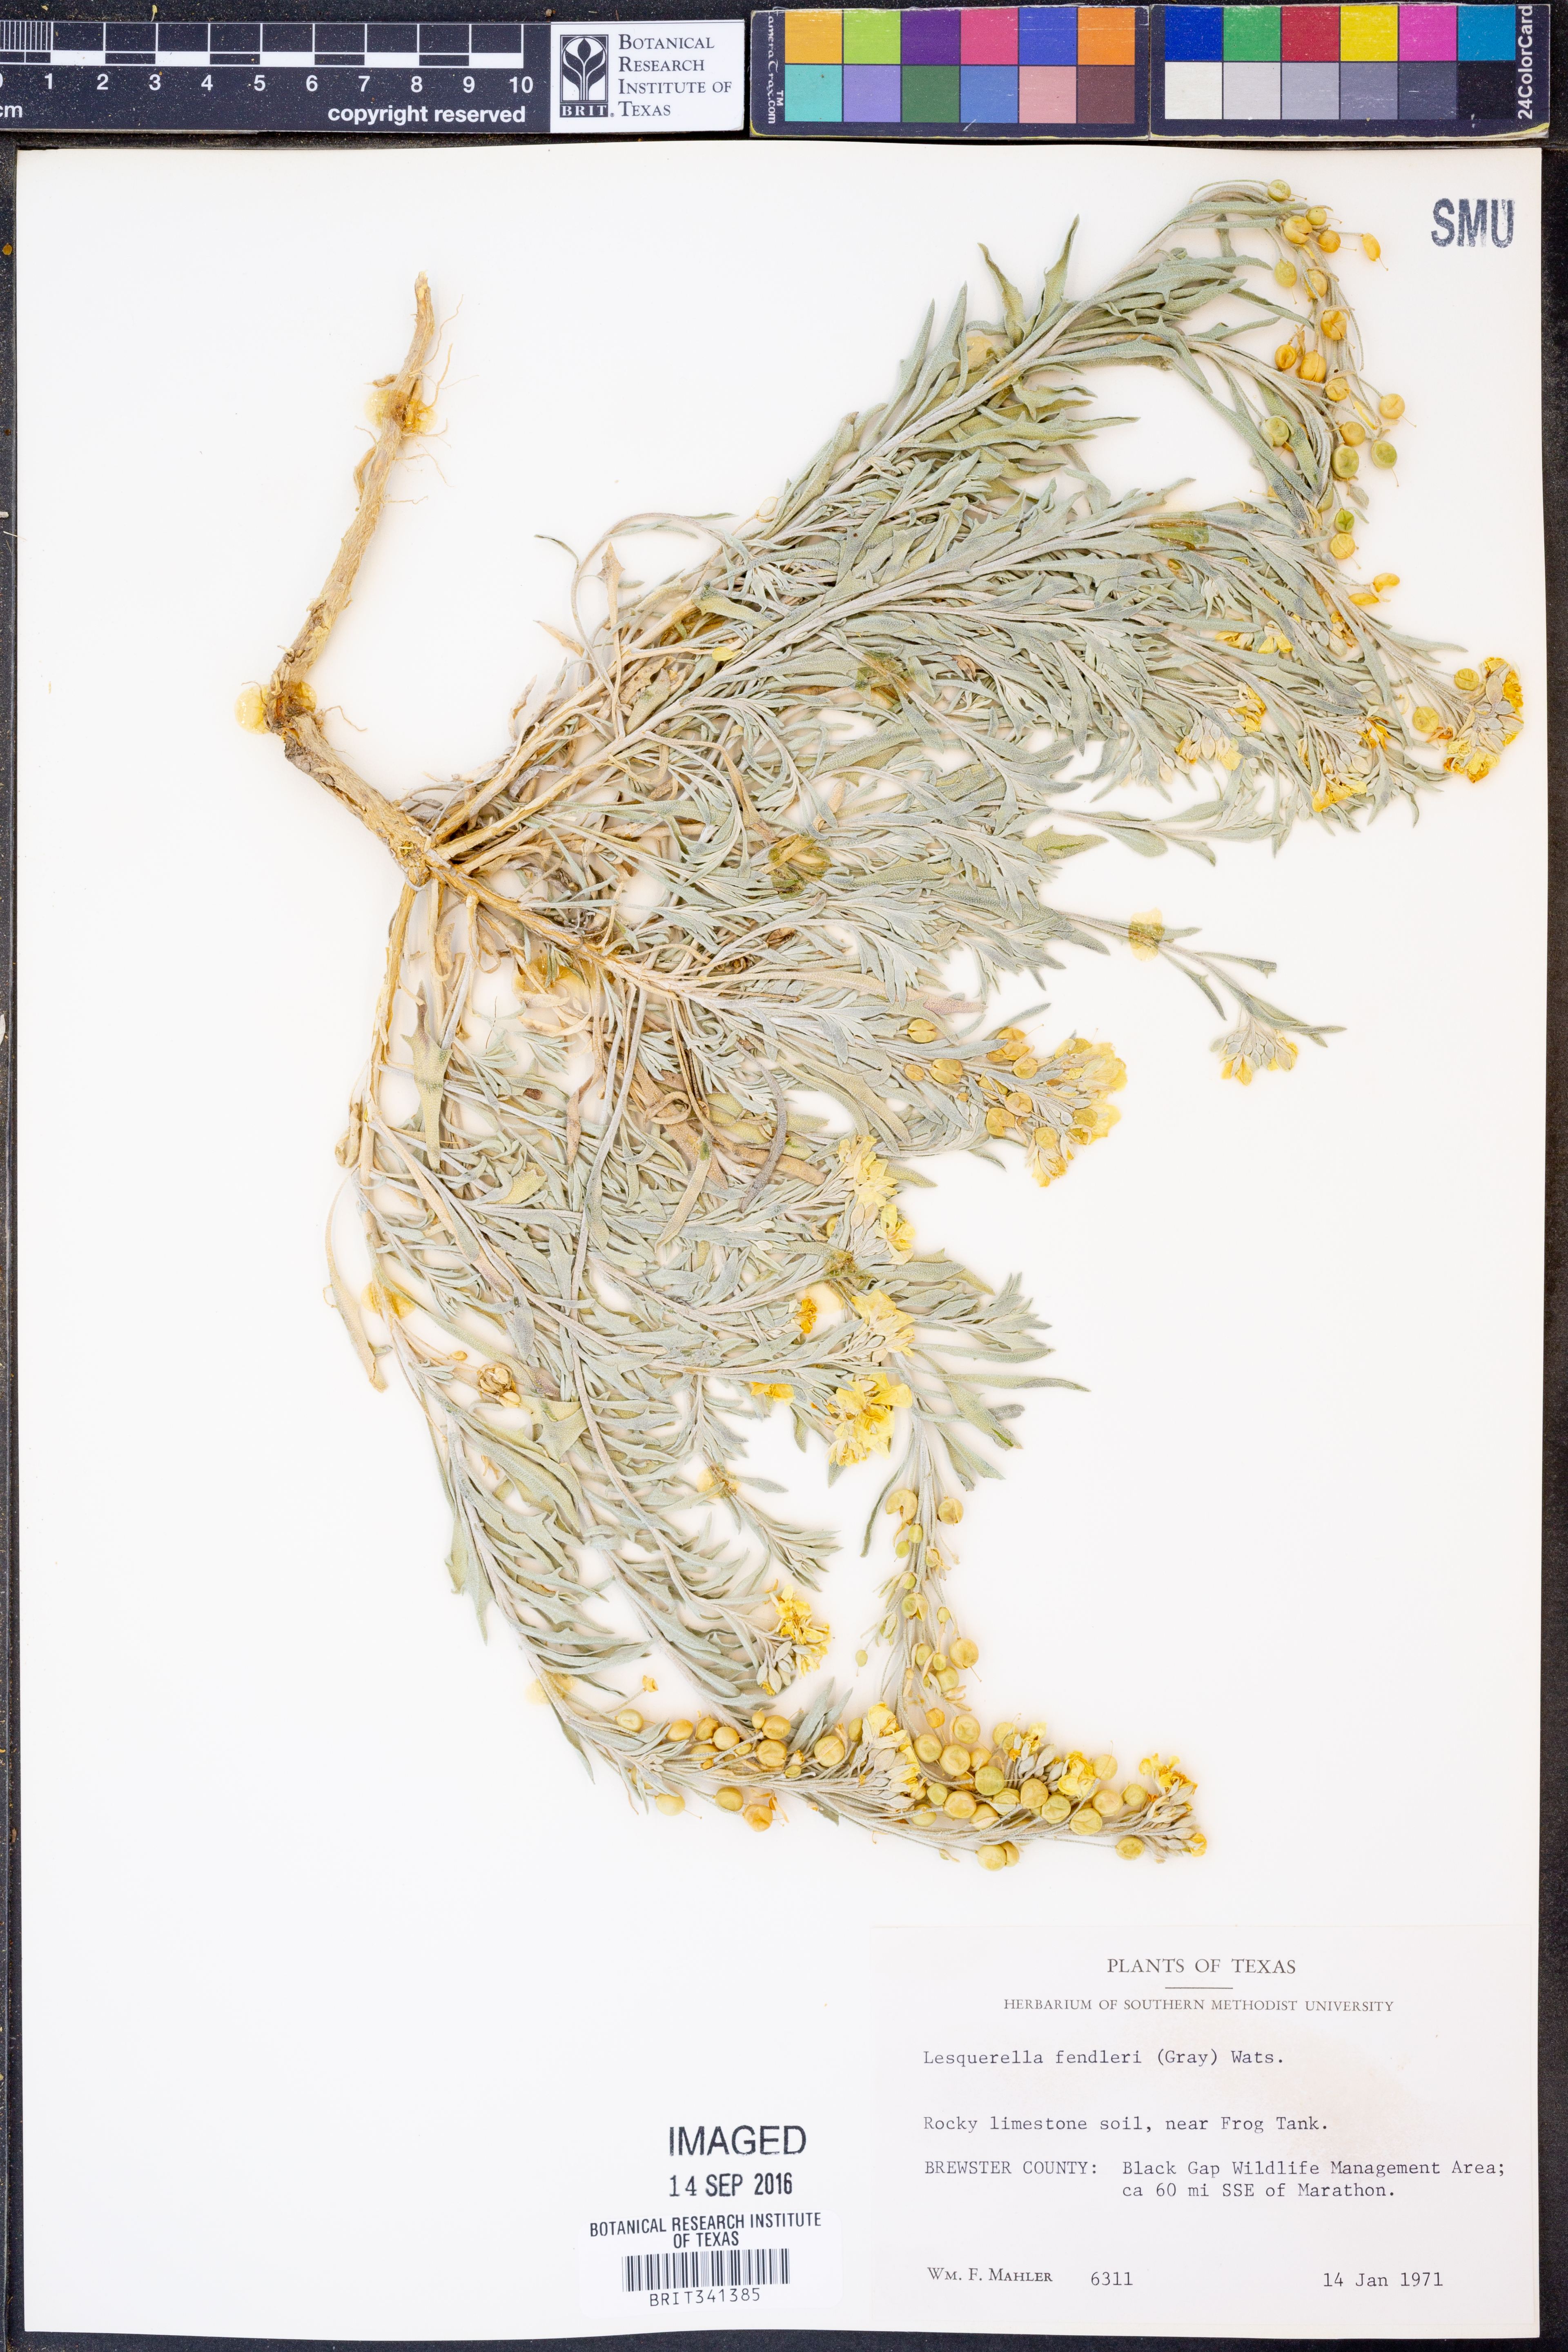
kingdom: Plantae
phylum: Tracheophyta
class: Magnoliopsida
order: Brassicales
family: Brassicaceae
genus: Physaria
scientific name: Physaria fendleri
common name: Fendler's bladderpod
